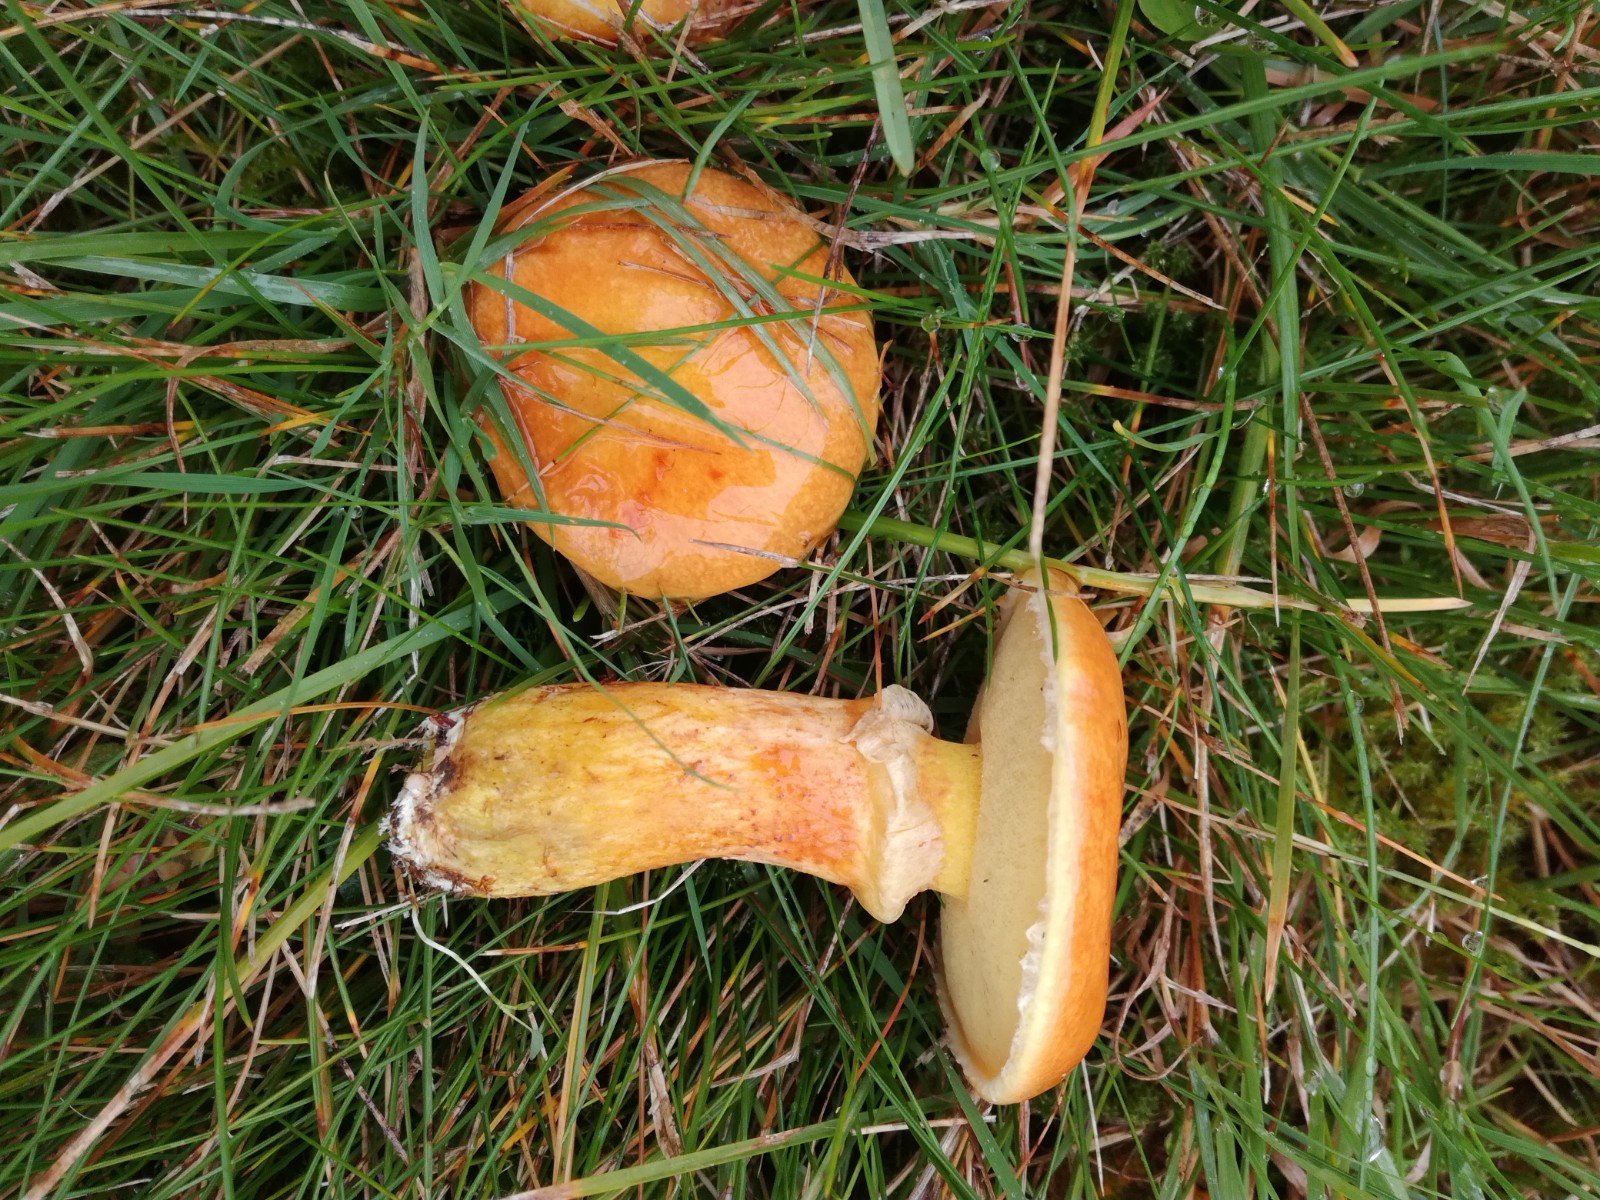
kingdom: Fungi
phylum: Basidiomycota
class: Agaricomycetes
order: Boletales
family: Suillaceae
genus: Suillus
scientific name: Suillus grevillei
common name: lærke-slimrørhat
